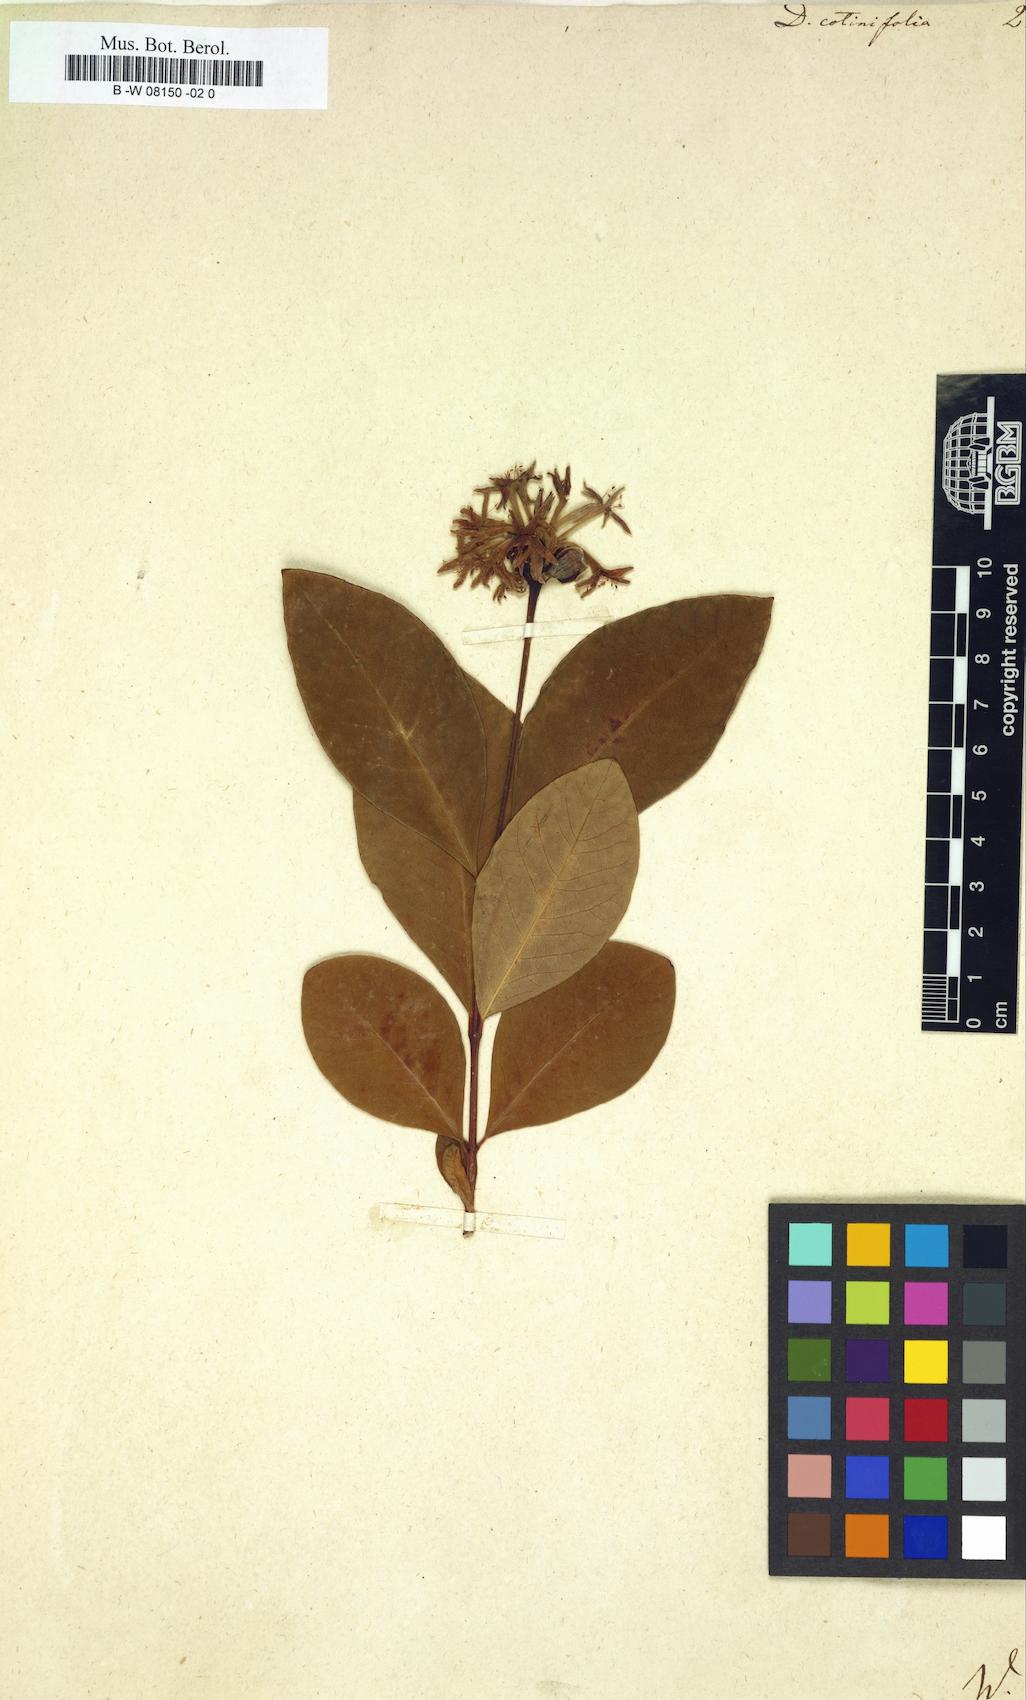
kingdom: Plantae
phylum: Tracheophyta
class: Magnoliopsida
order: Malvales
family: Thymelaeaceae
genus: Dais
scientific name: Dais cotinifolia
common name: Pompon tree
